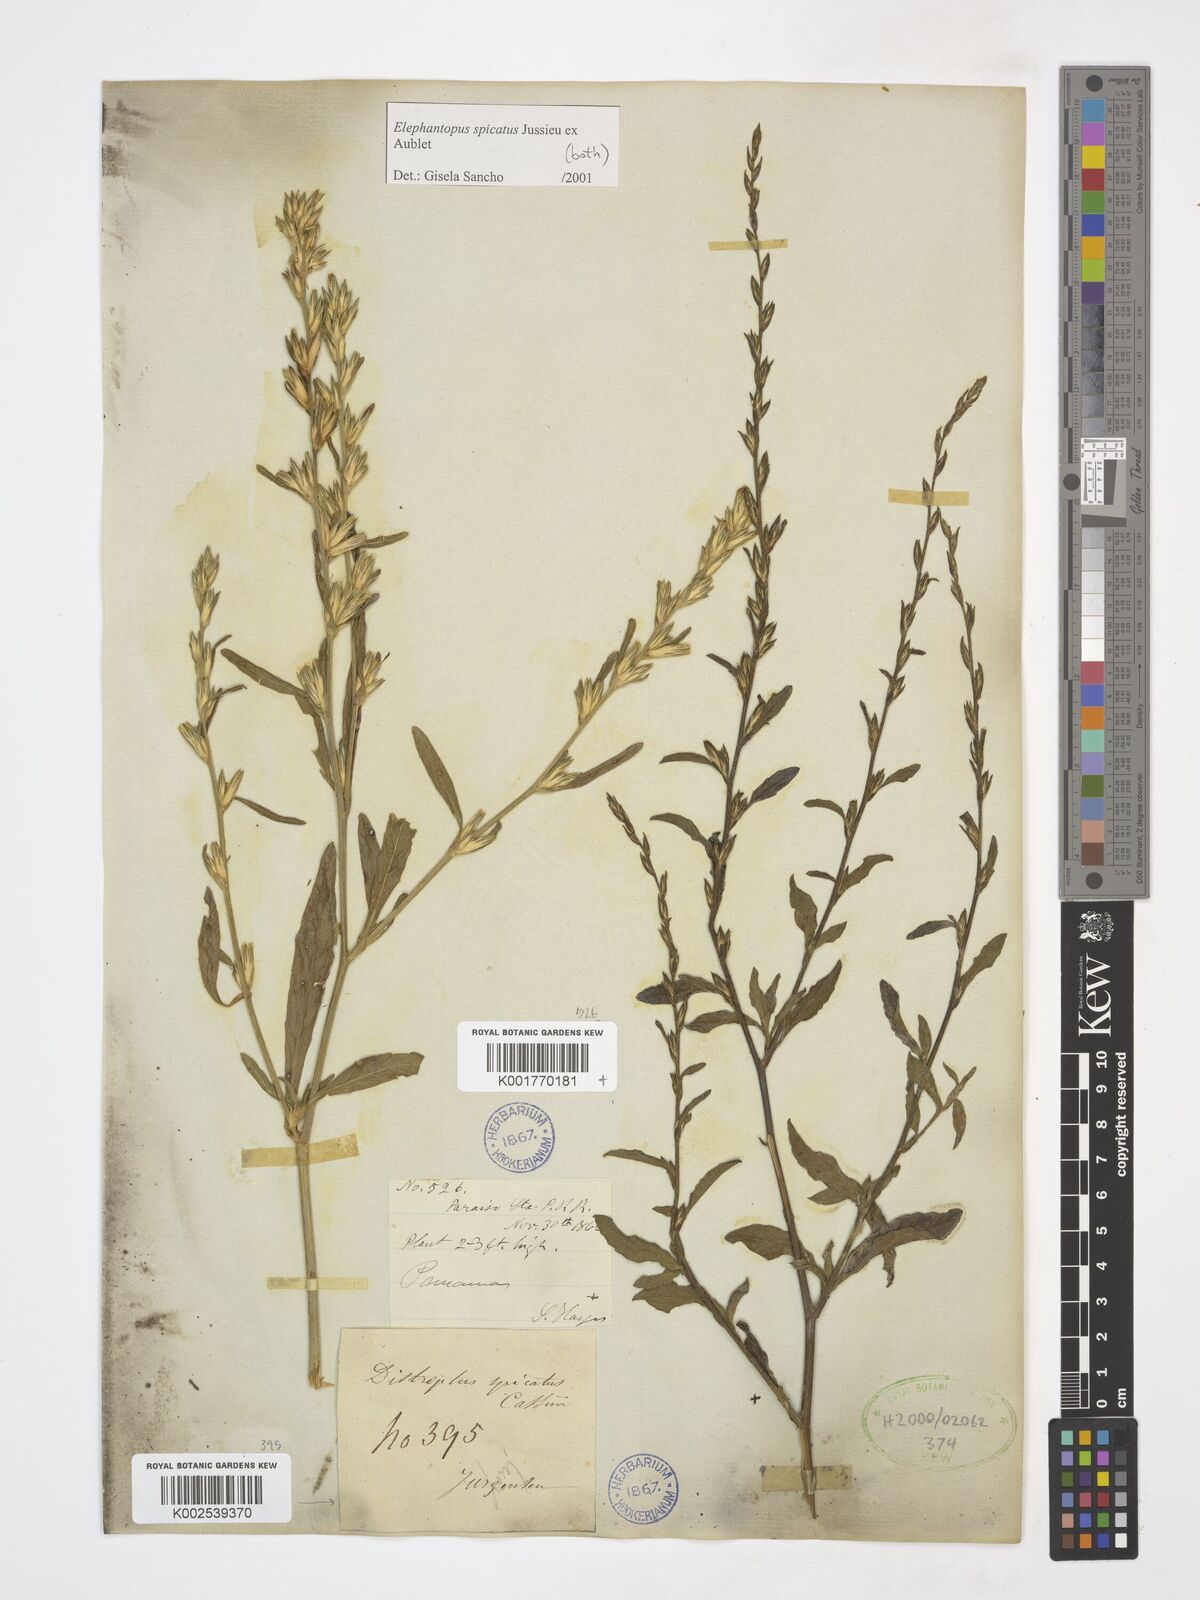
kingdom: Plantae
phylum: Tracheophyta
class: Magnoliopsida
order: Asterales
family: Asteraceae
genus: Pseudelephantopus
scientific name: Pseudelephantopus spicatus
